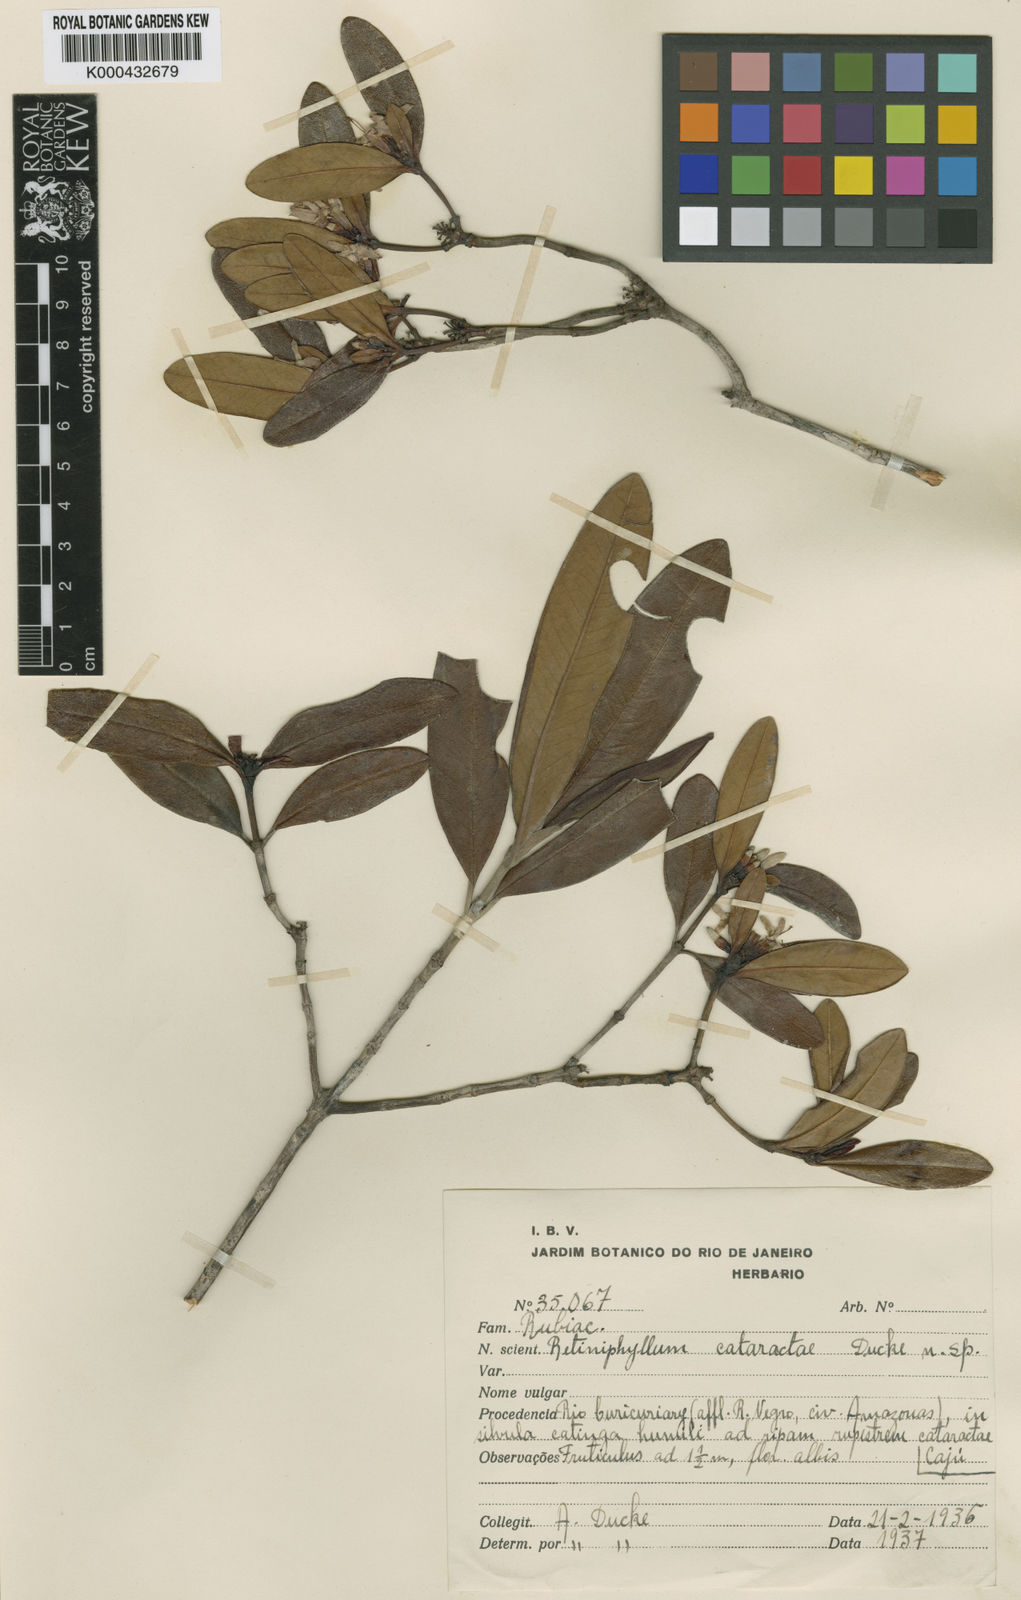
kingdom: Plantae
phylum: Tracheophyta
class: Magnoliopsida
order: Gentianales
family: Rubiaceae
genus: Retiniphyllum
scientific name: Retiniphyllum cataractae
